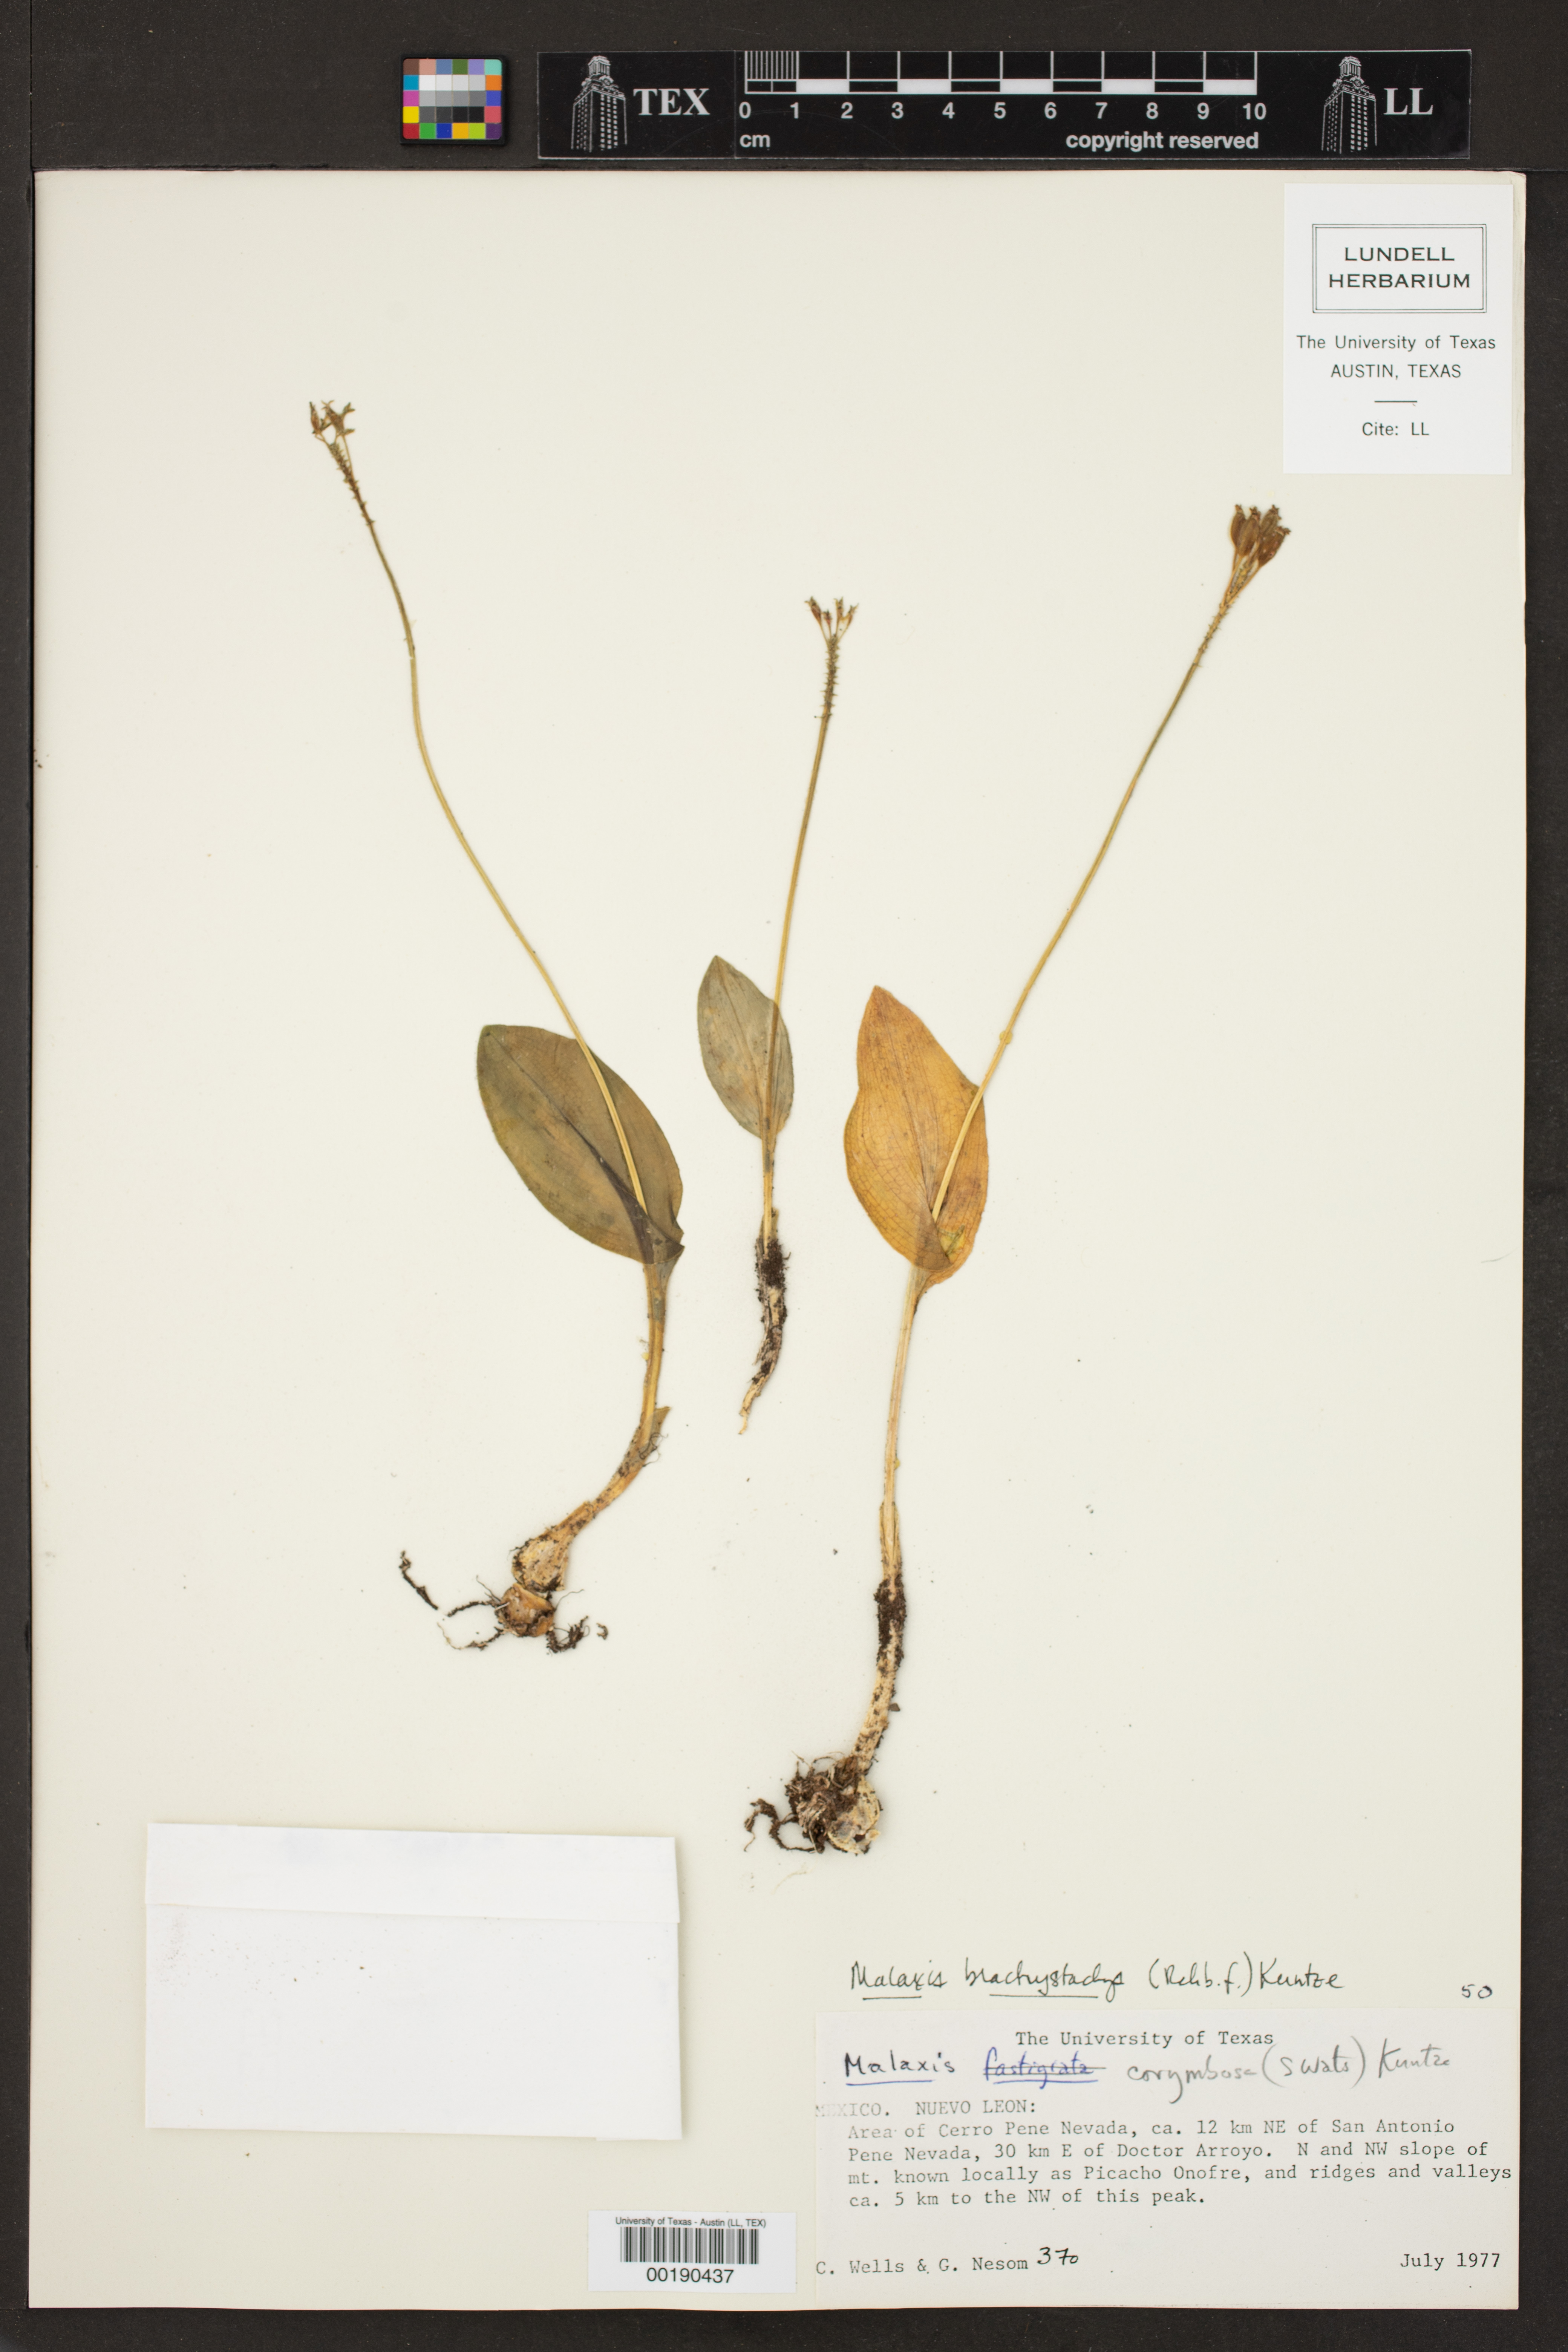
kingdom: Plantae
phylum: Tracheophyta
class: Liliopsida
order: Asparagales
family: Orchidaceae
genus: Malaxis
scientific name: Malaxis brachystachys
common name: Huachuca adder's-mouth
